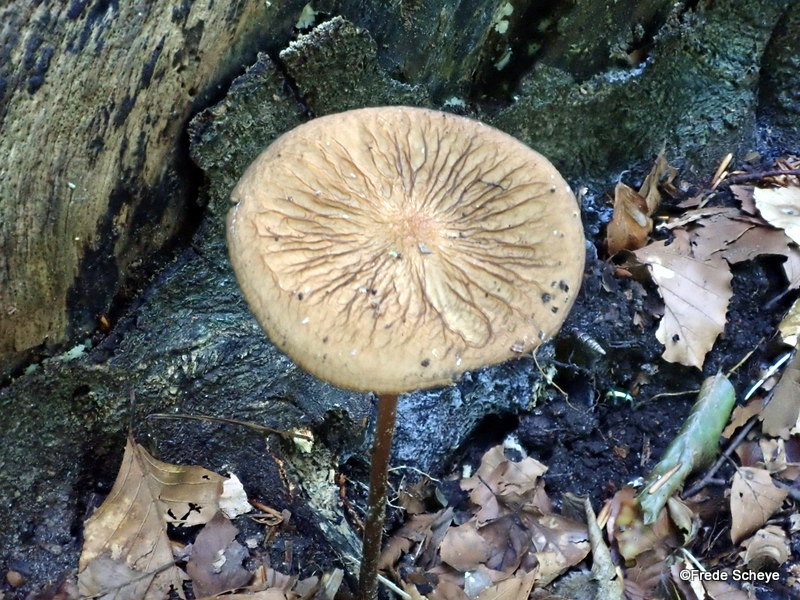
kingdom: Fungi
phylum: Basidiomycota
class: Agaricomycetes
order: Agaricales
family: Physalacriaceae
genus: Hymenopellis
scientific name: Hymenopellis radicata
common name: almindelig pælerodshat
